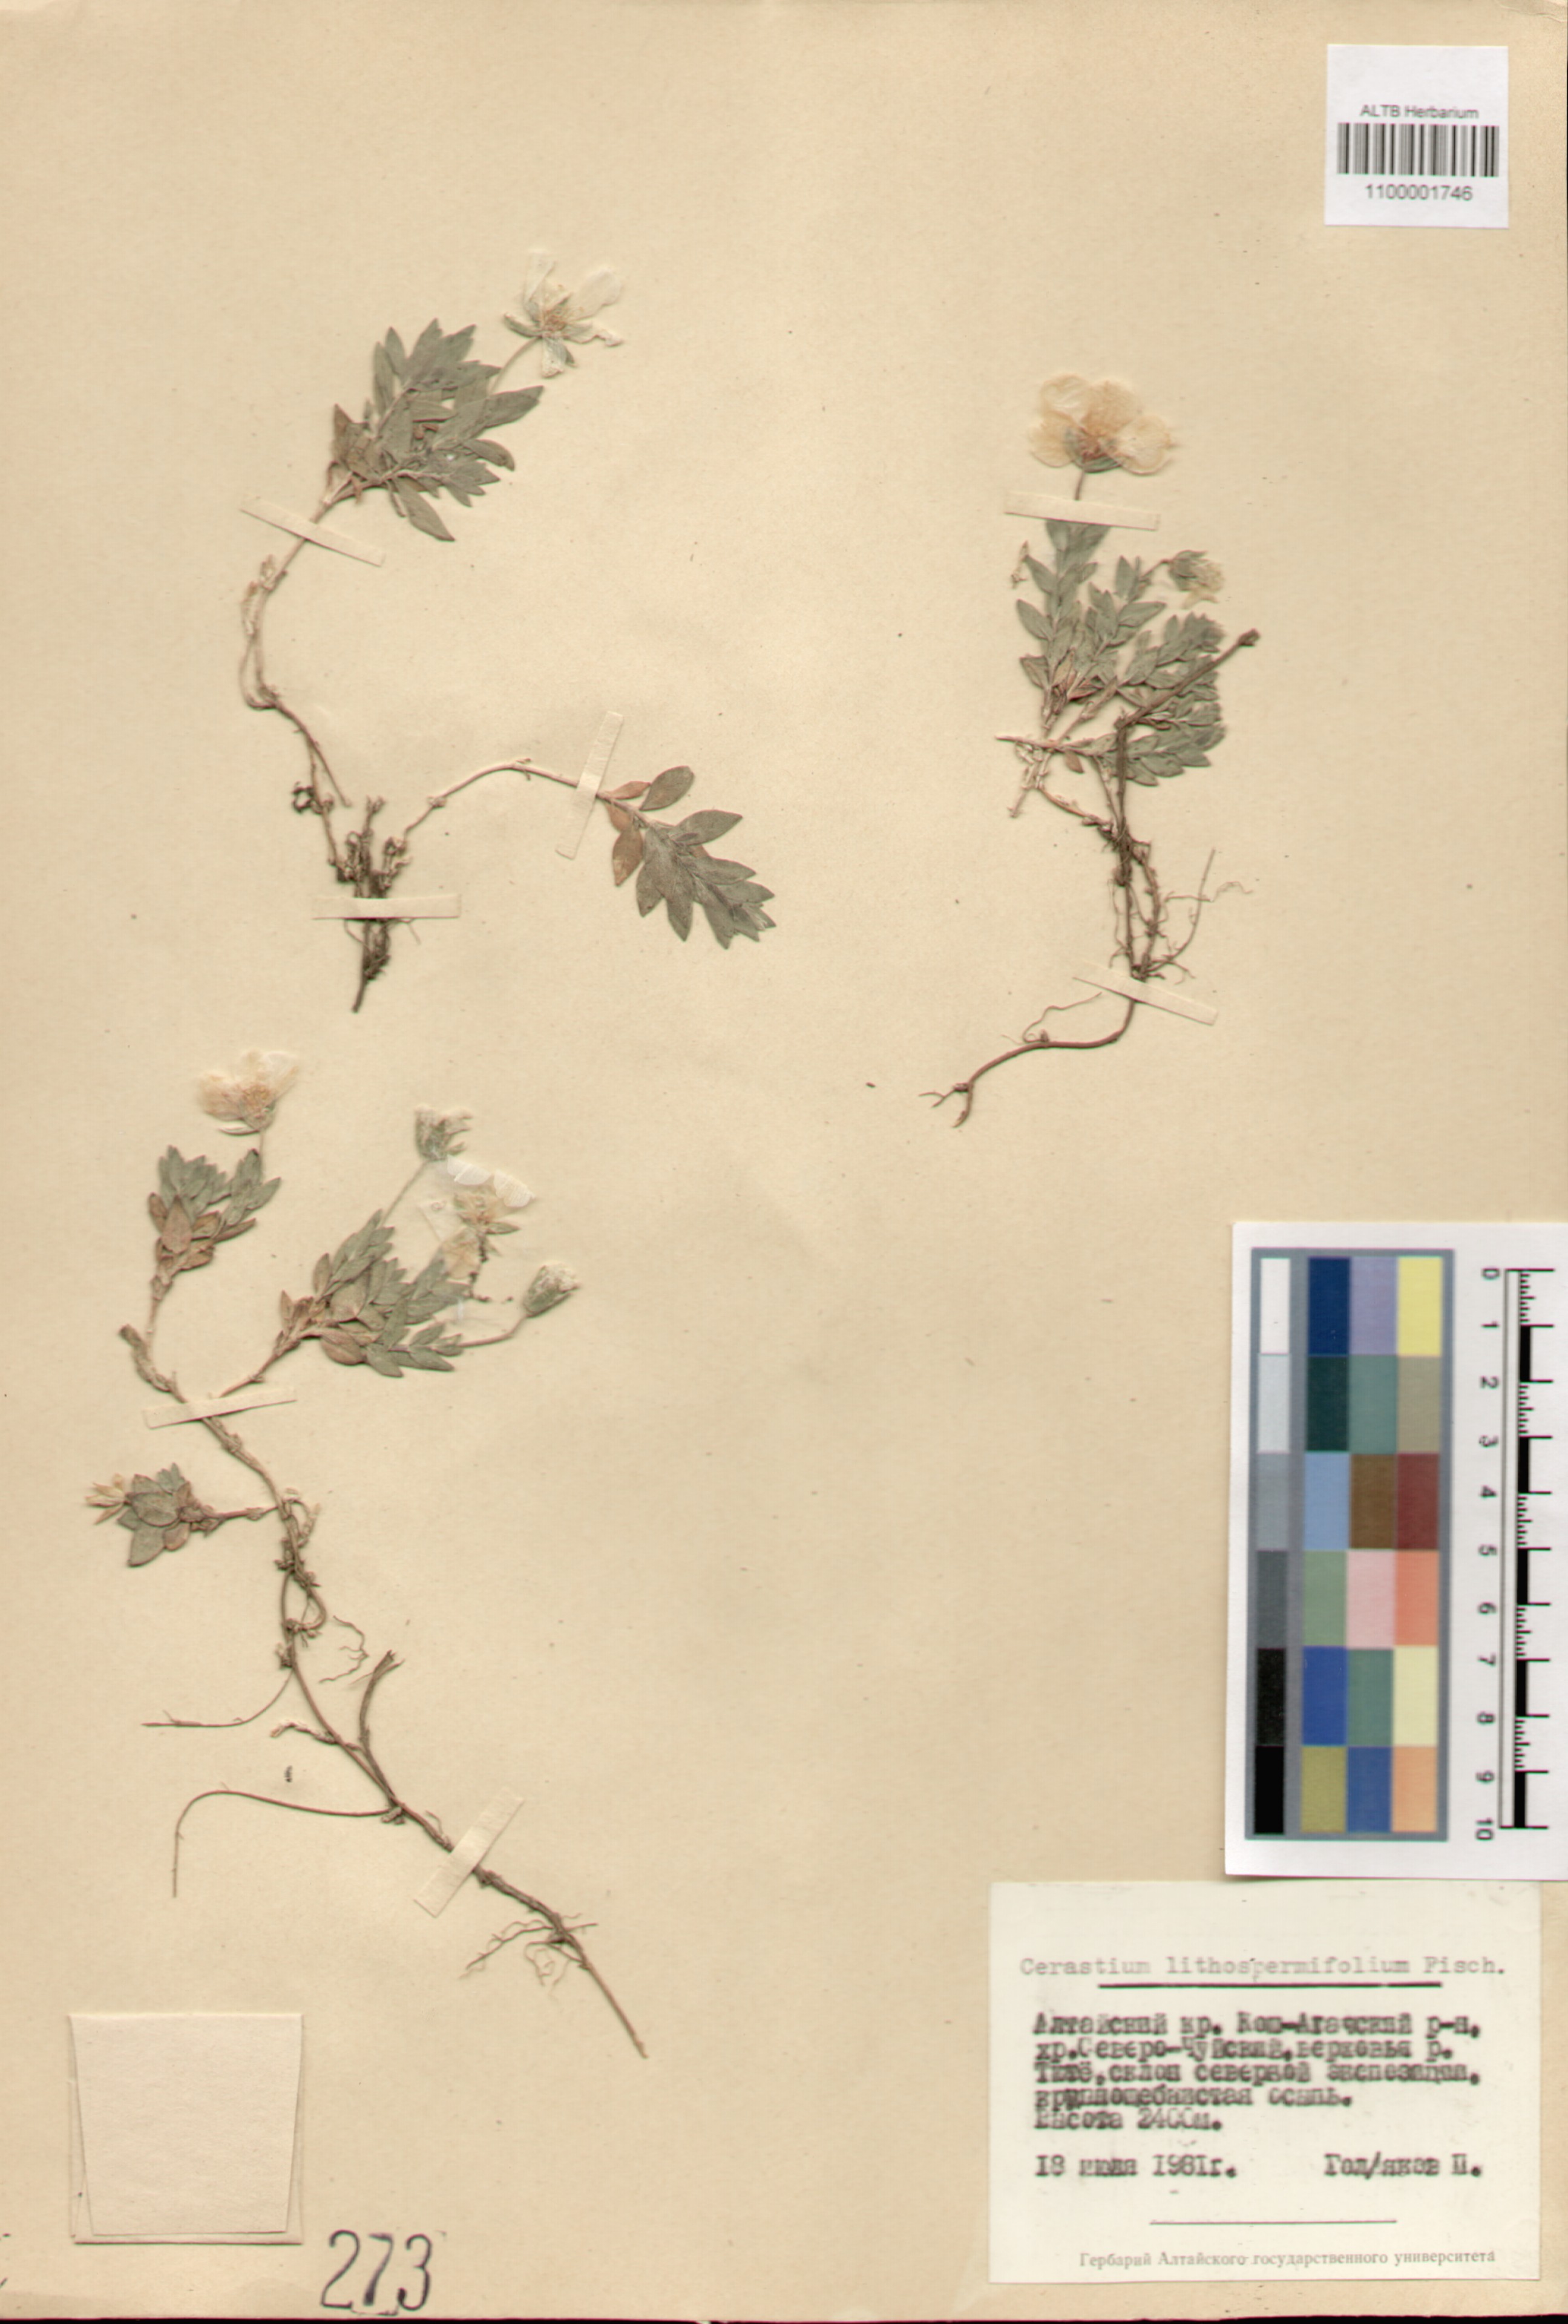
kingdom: Plantae
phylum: Tracheophyta
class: Magnoliopsida
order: Caryophyllales
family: Caryophyllaceae
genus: Cerastium
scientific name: Cerastium lithospermifolium
